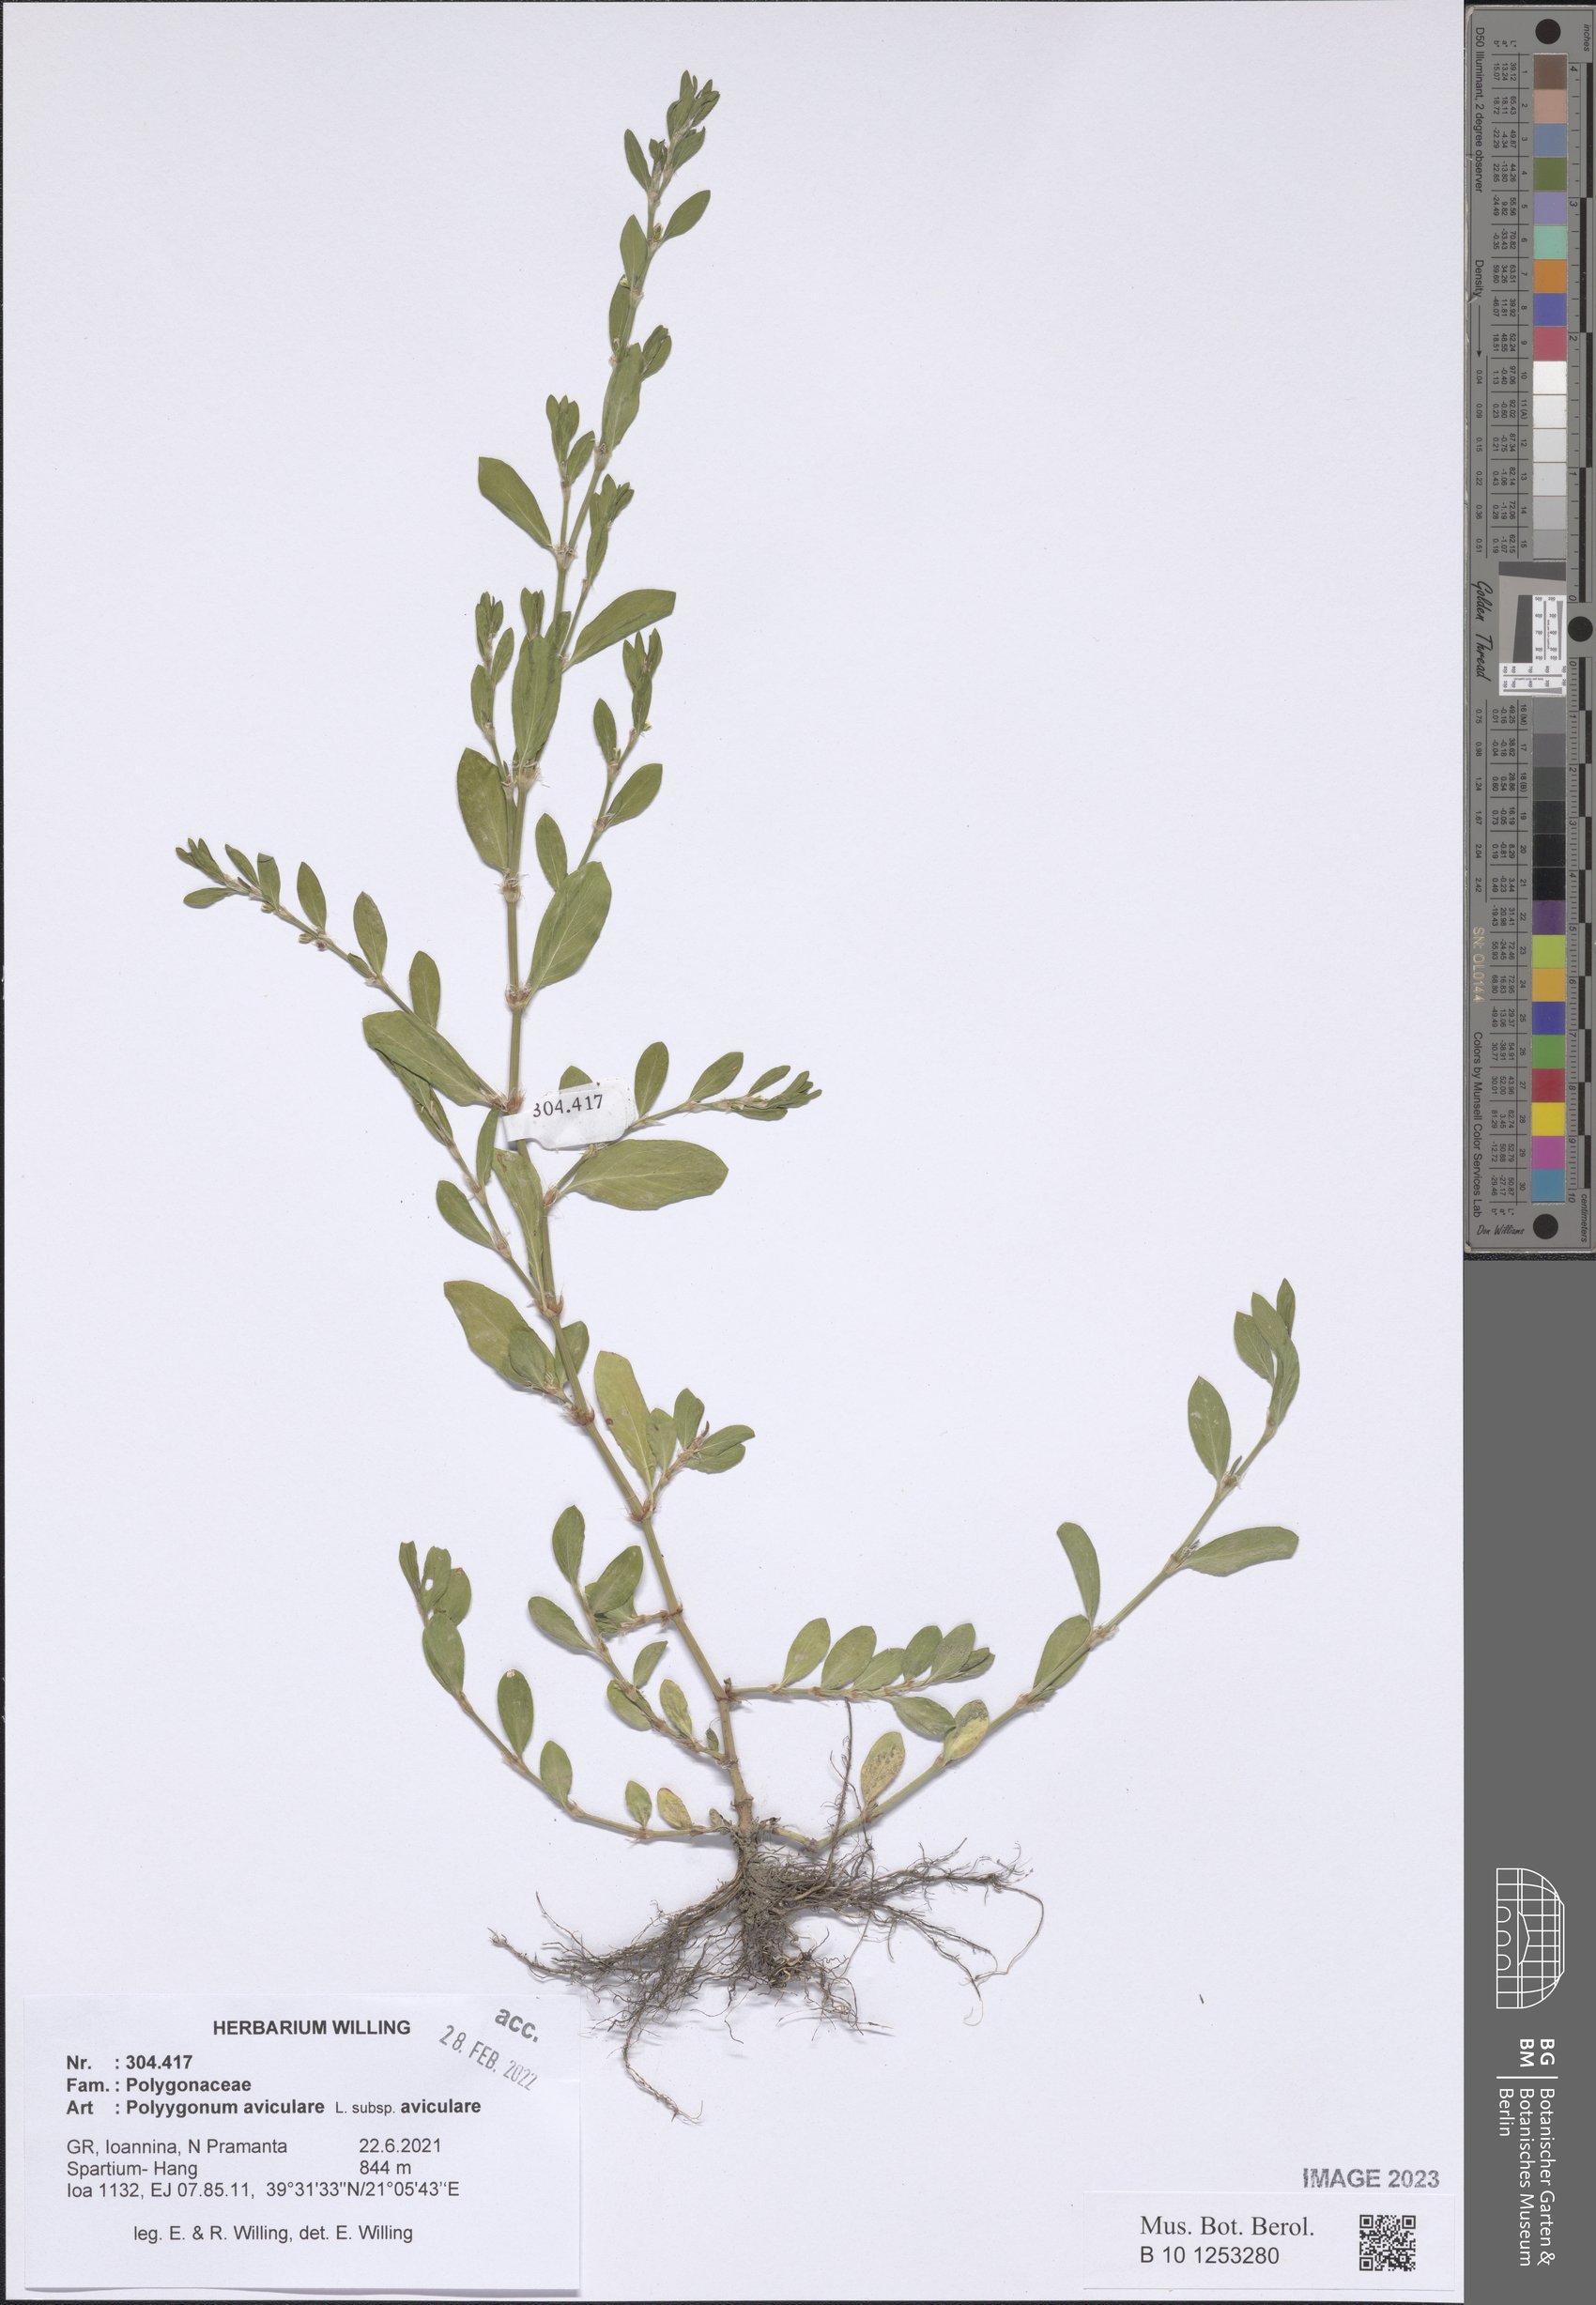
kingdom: Plantae
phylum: Tracheophyta
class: Magnoliopsida
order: Caryophyllales
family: Polygonaceae
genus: Polygonum
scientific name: Polygonum aviculare
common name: Prostrate knotweed
